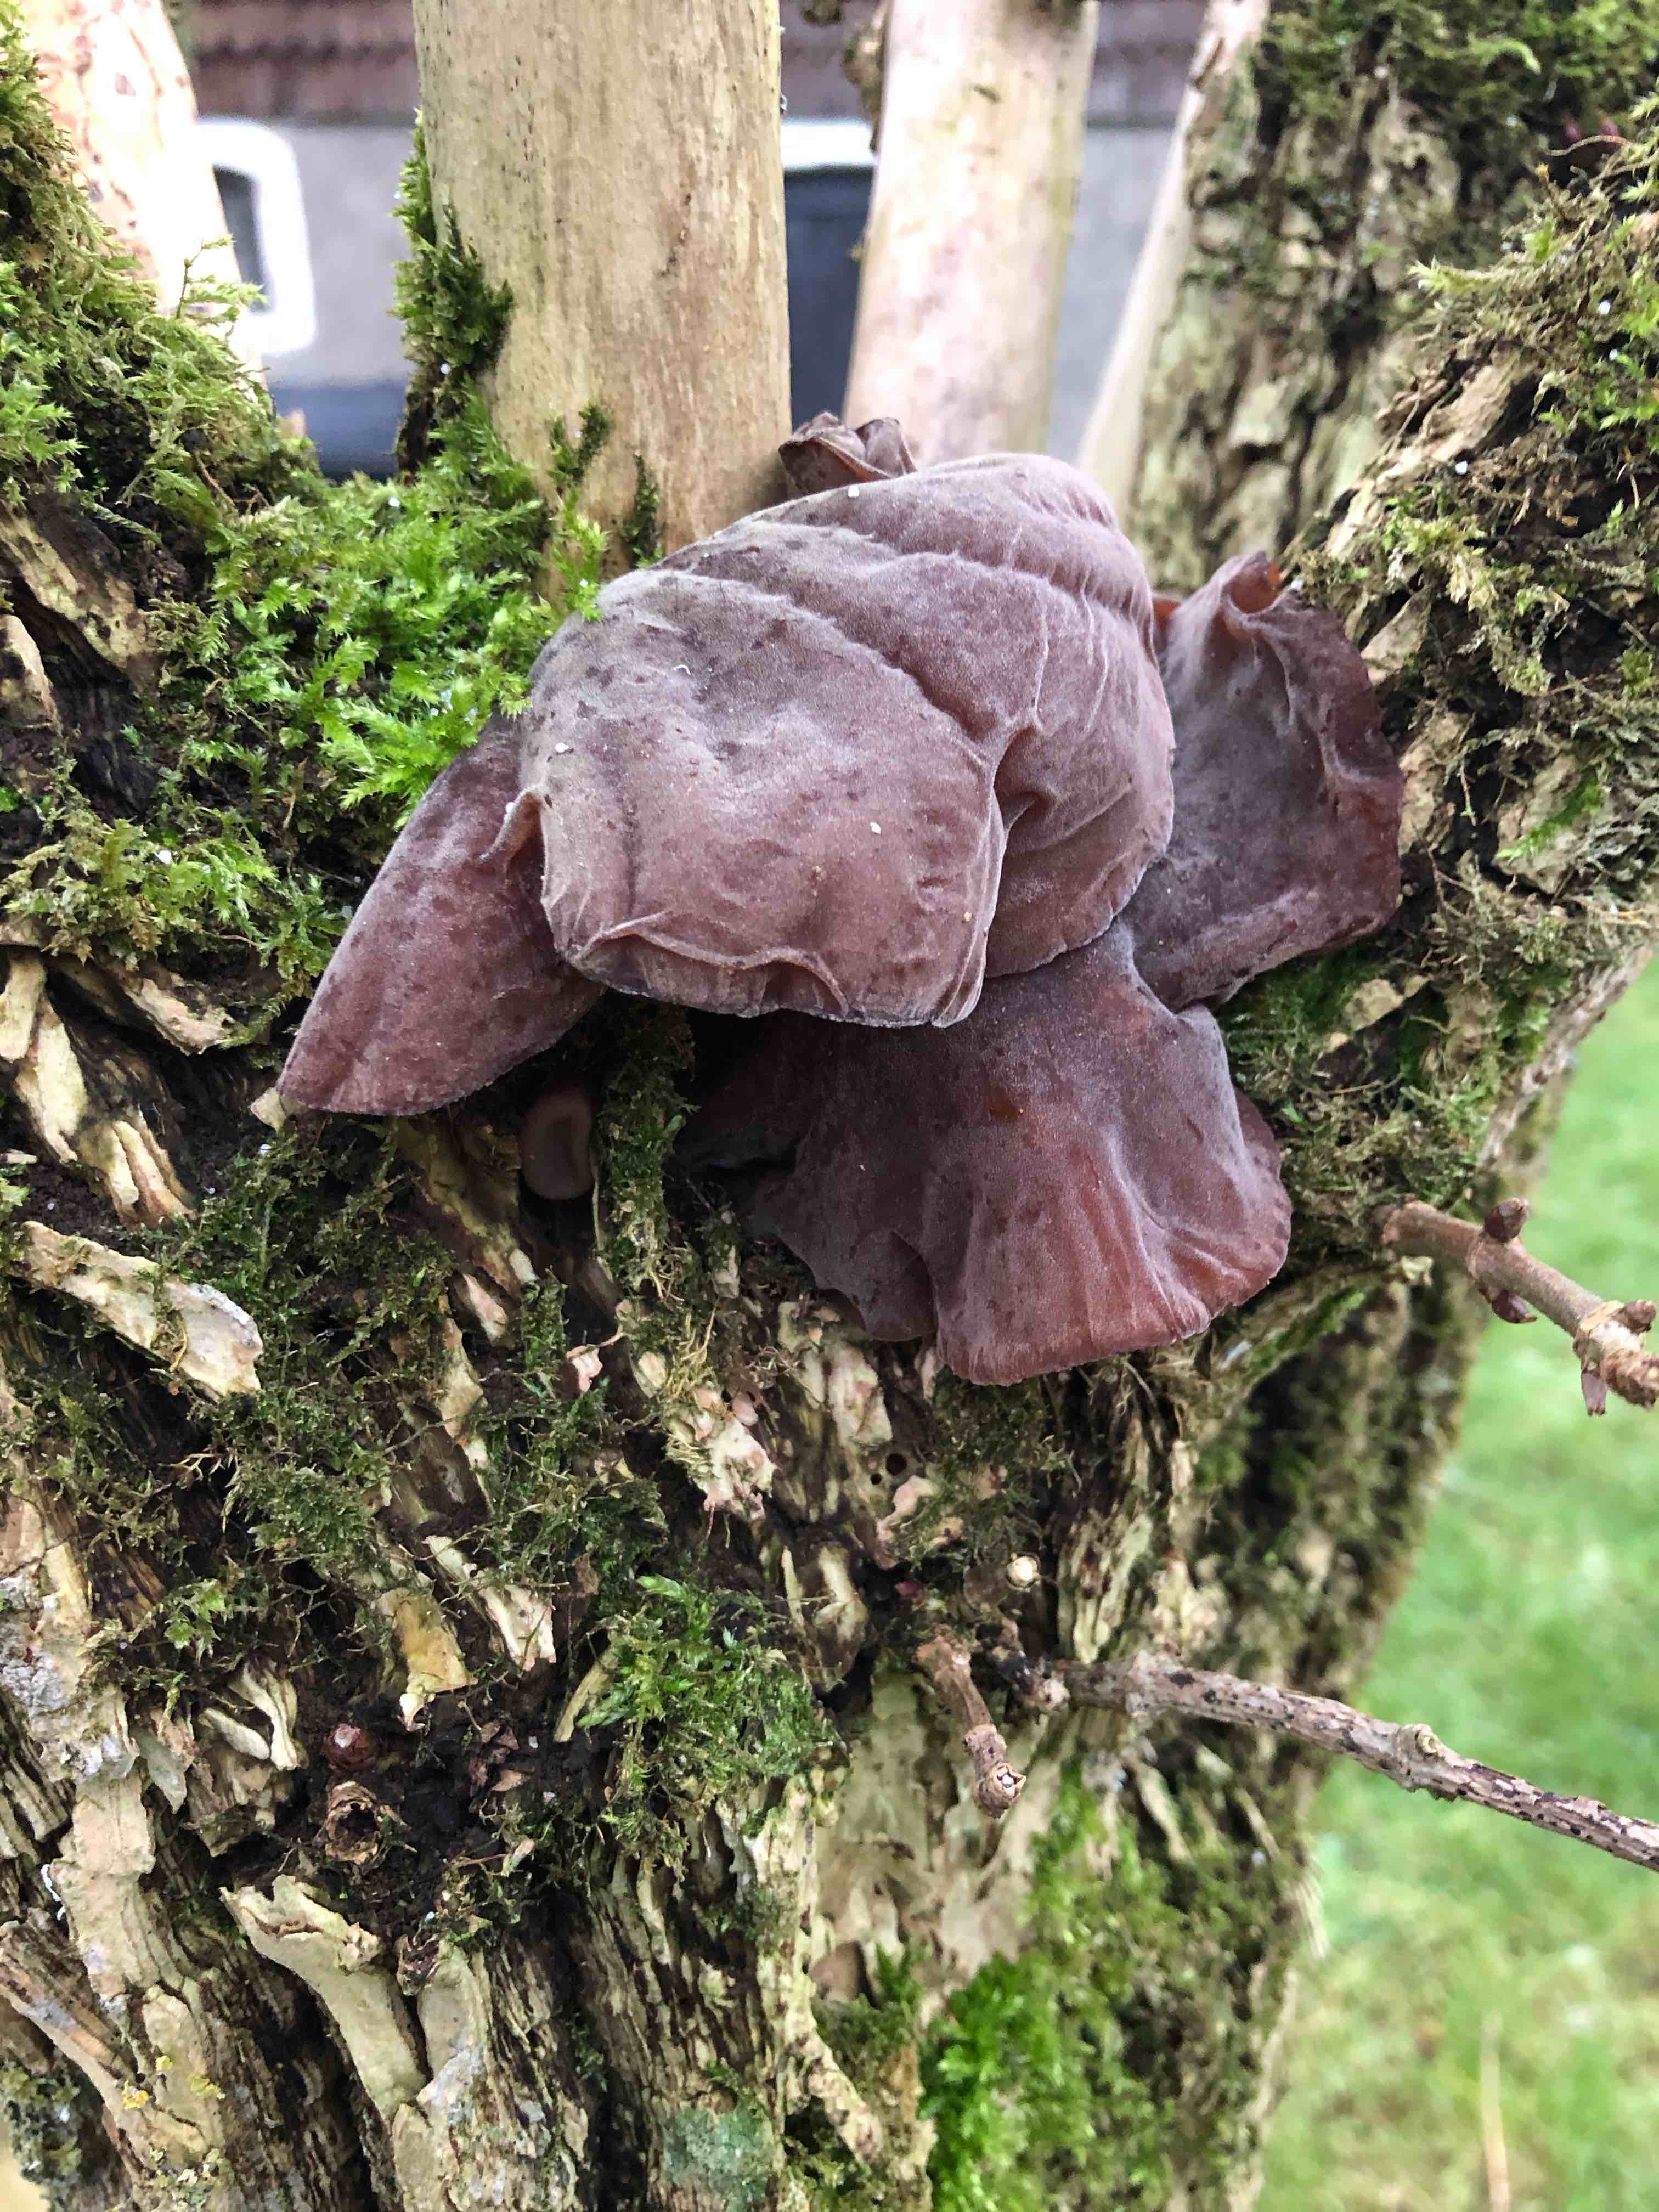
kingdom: Fungi
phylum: Basidiomycota
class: Agaricomycetes
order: Auriculariales
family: Auriculariaceae
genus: Auricularia
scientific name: Auricularia auricula-judae
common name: almindelig judasøre
